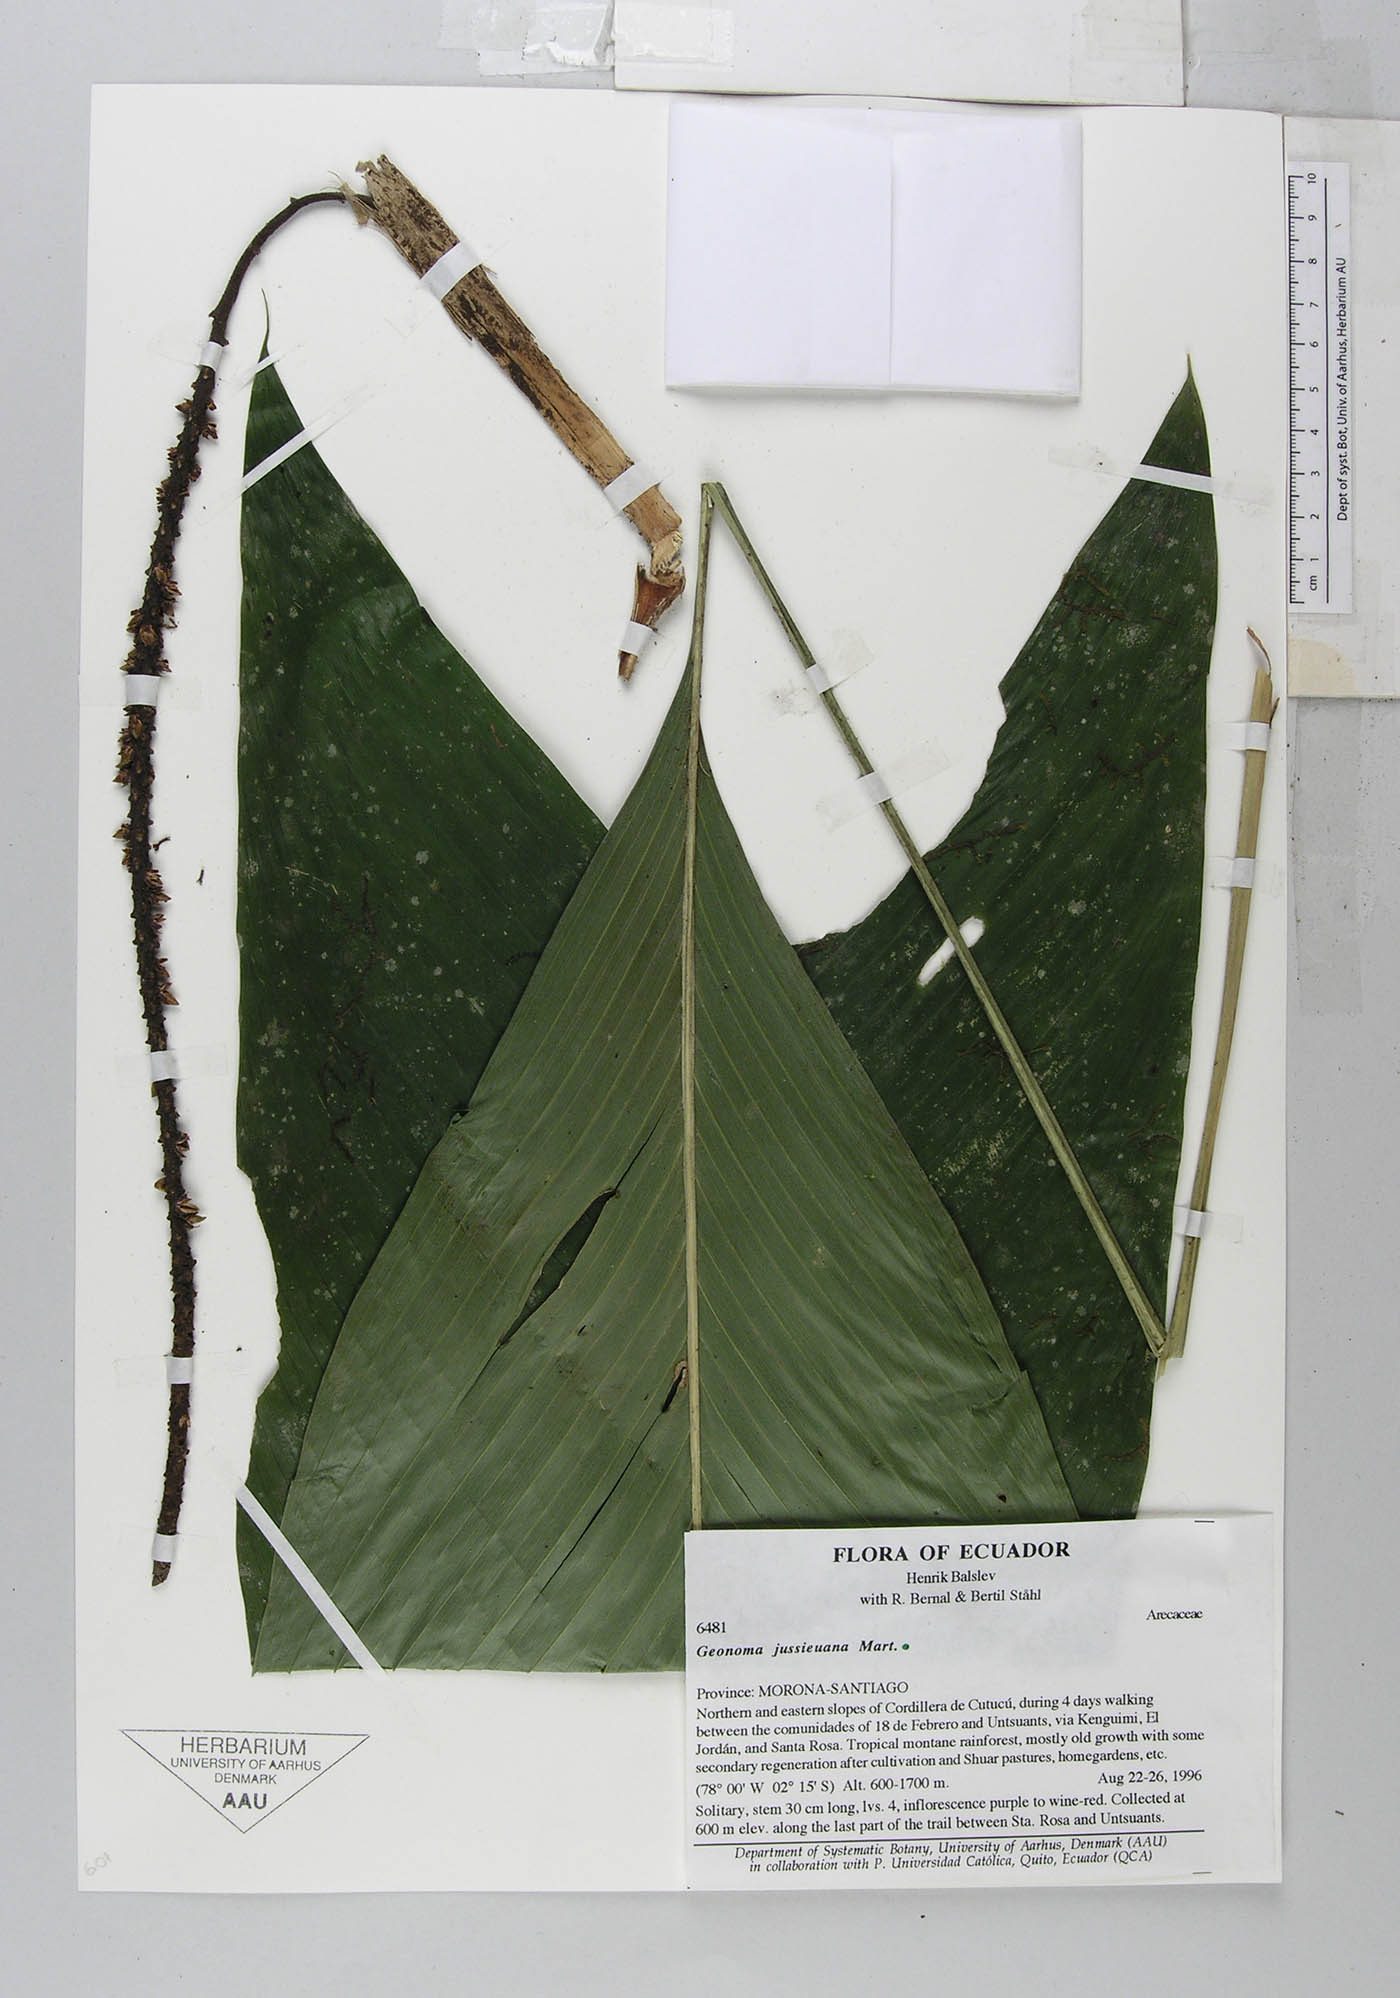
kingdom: Plantae
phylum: Tracheophyta
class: Liliopsida
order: Arecales
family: Arecaceae
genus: Geonoma
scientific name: Geonoma stricta
